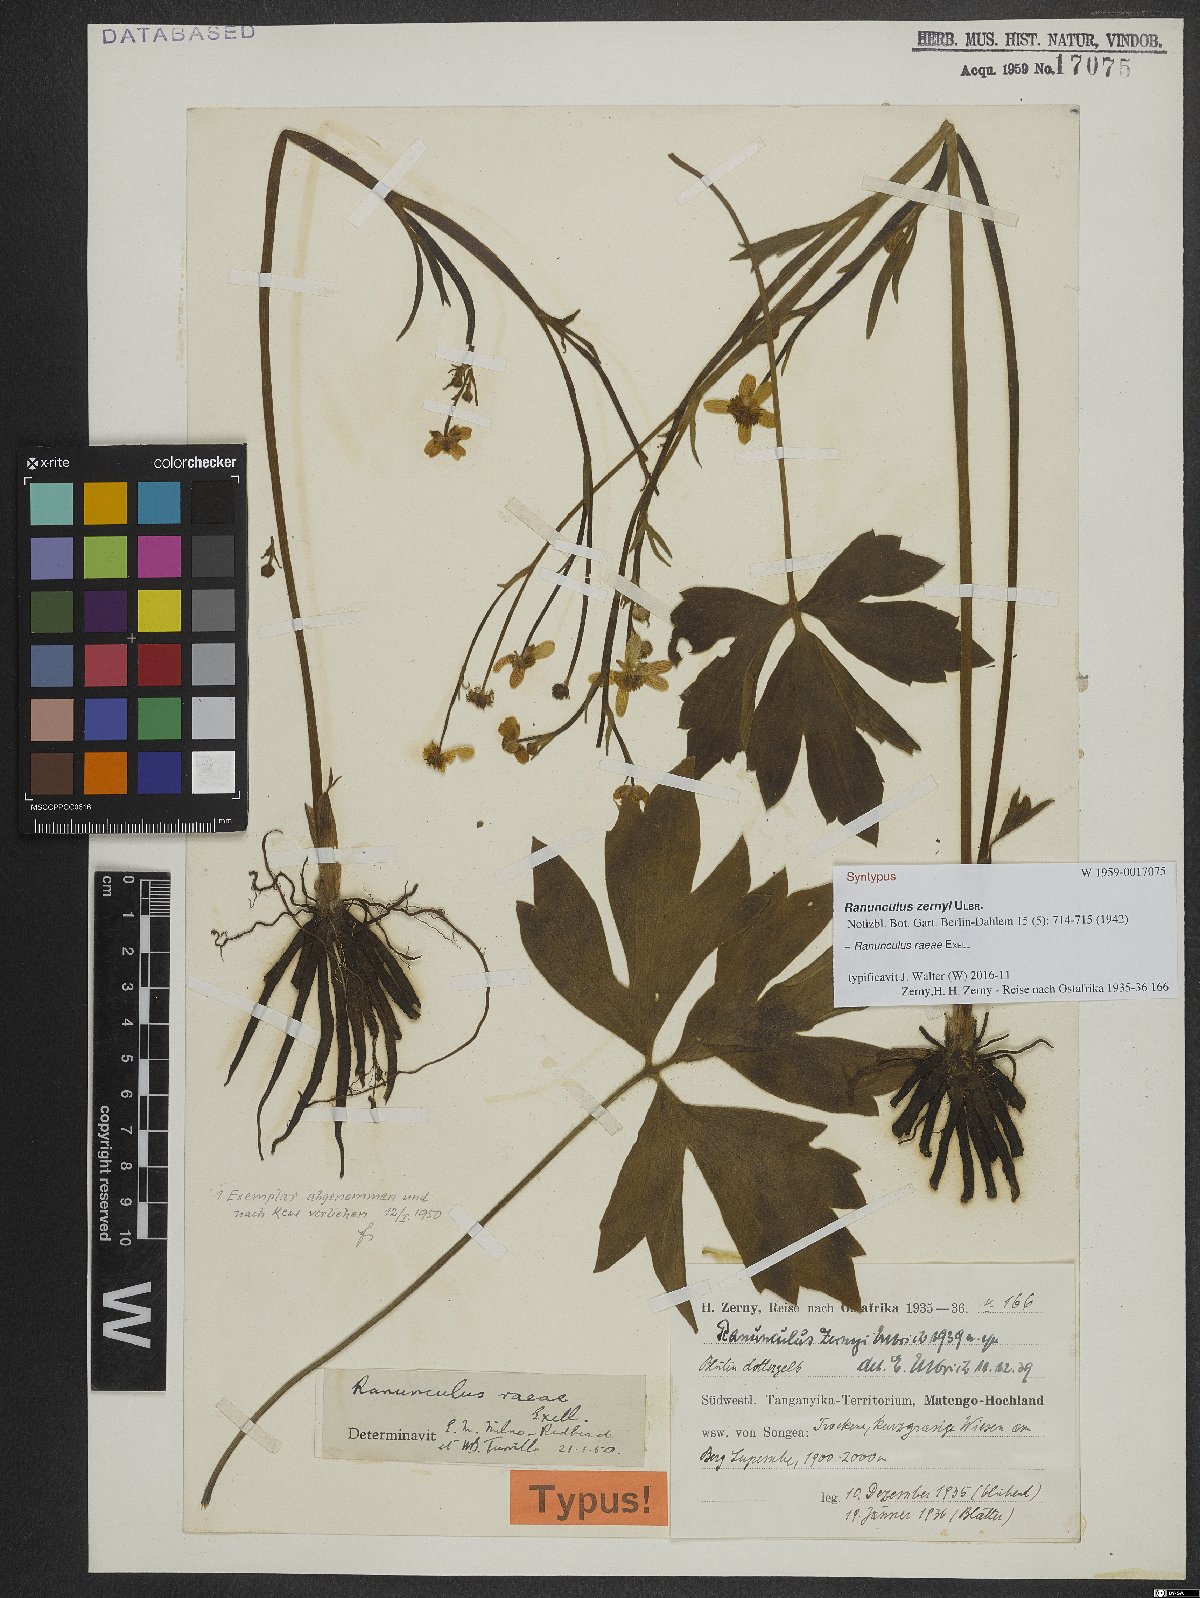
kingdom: Plantae
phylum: Tracheophyta
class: Magnoliopsida
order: Ranunculales
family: Ranunculaceae
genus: Ranunculus
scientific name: Ranunculus raeae
